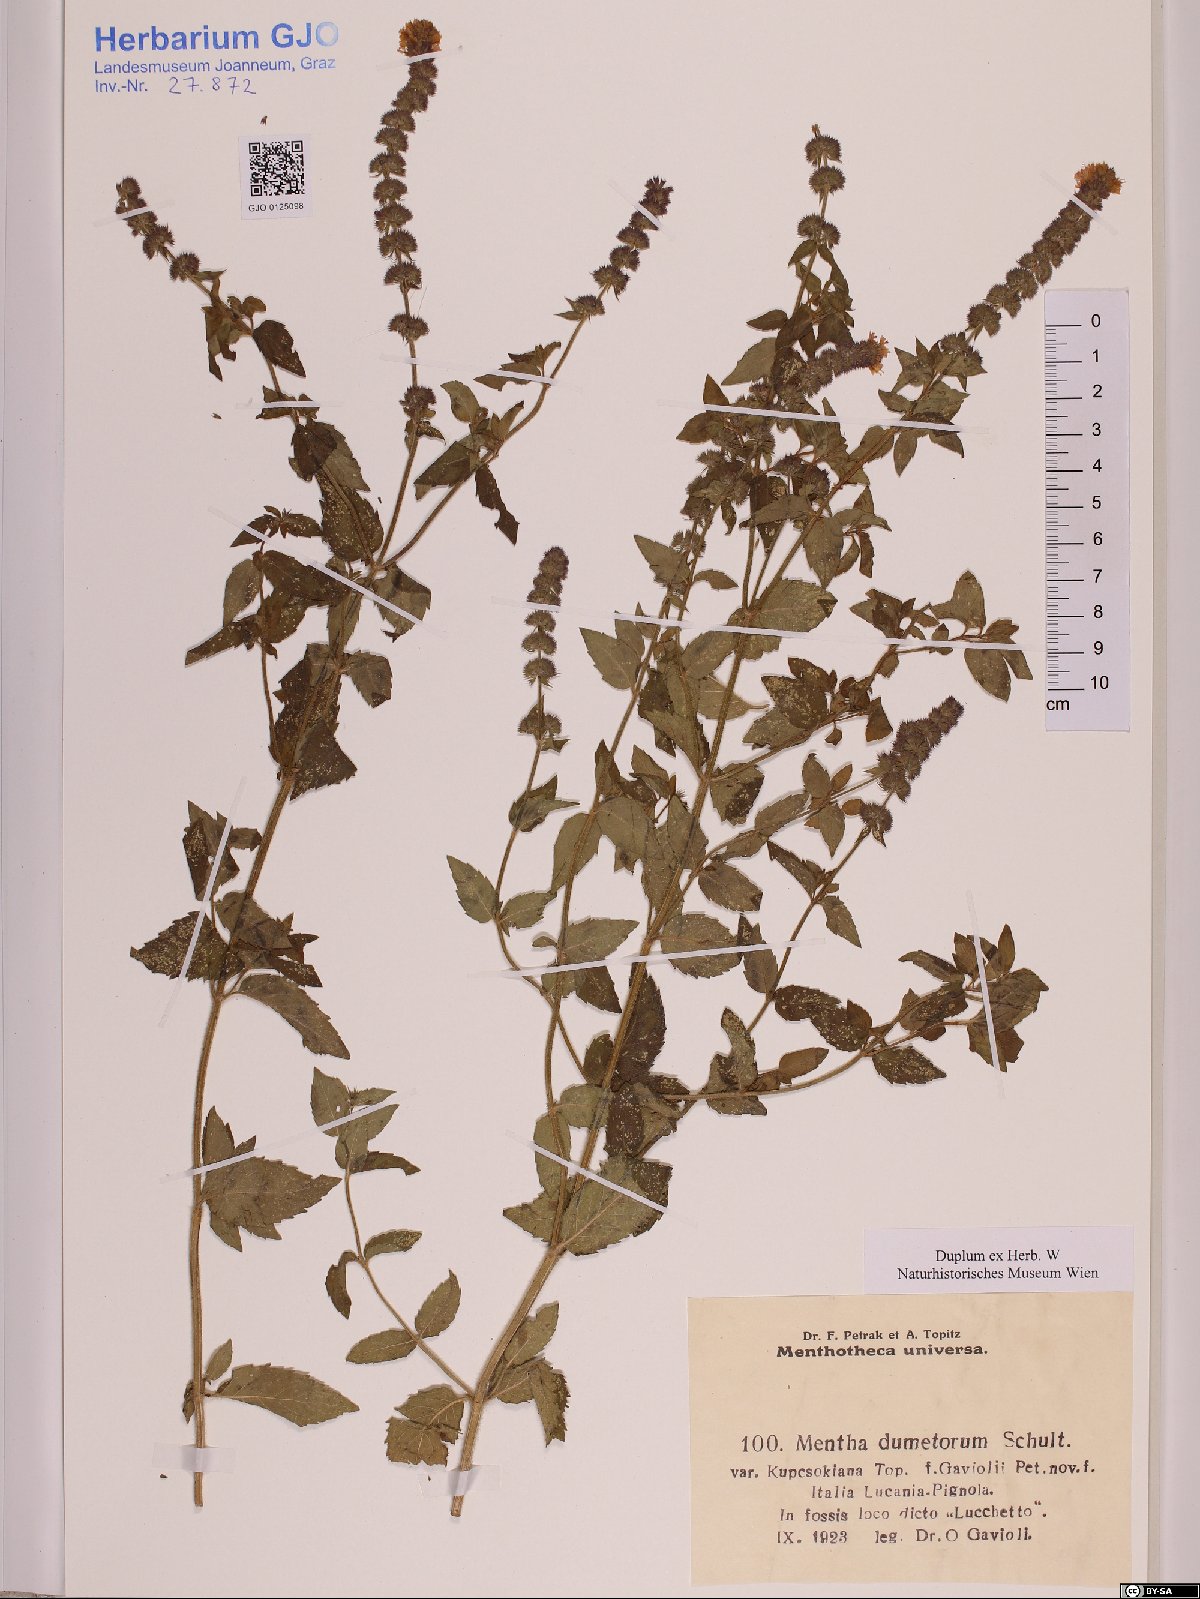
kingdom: Plantae
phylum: Tracheophyta
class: Magnoliopsida
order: Lamiales
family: Lamiaceae
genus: Mentha
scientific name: Mentha dumetorum
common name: Bush-loving mint
